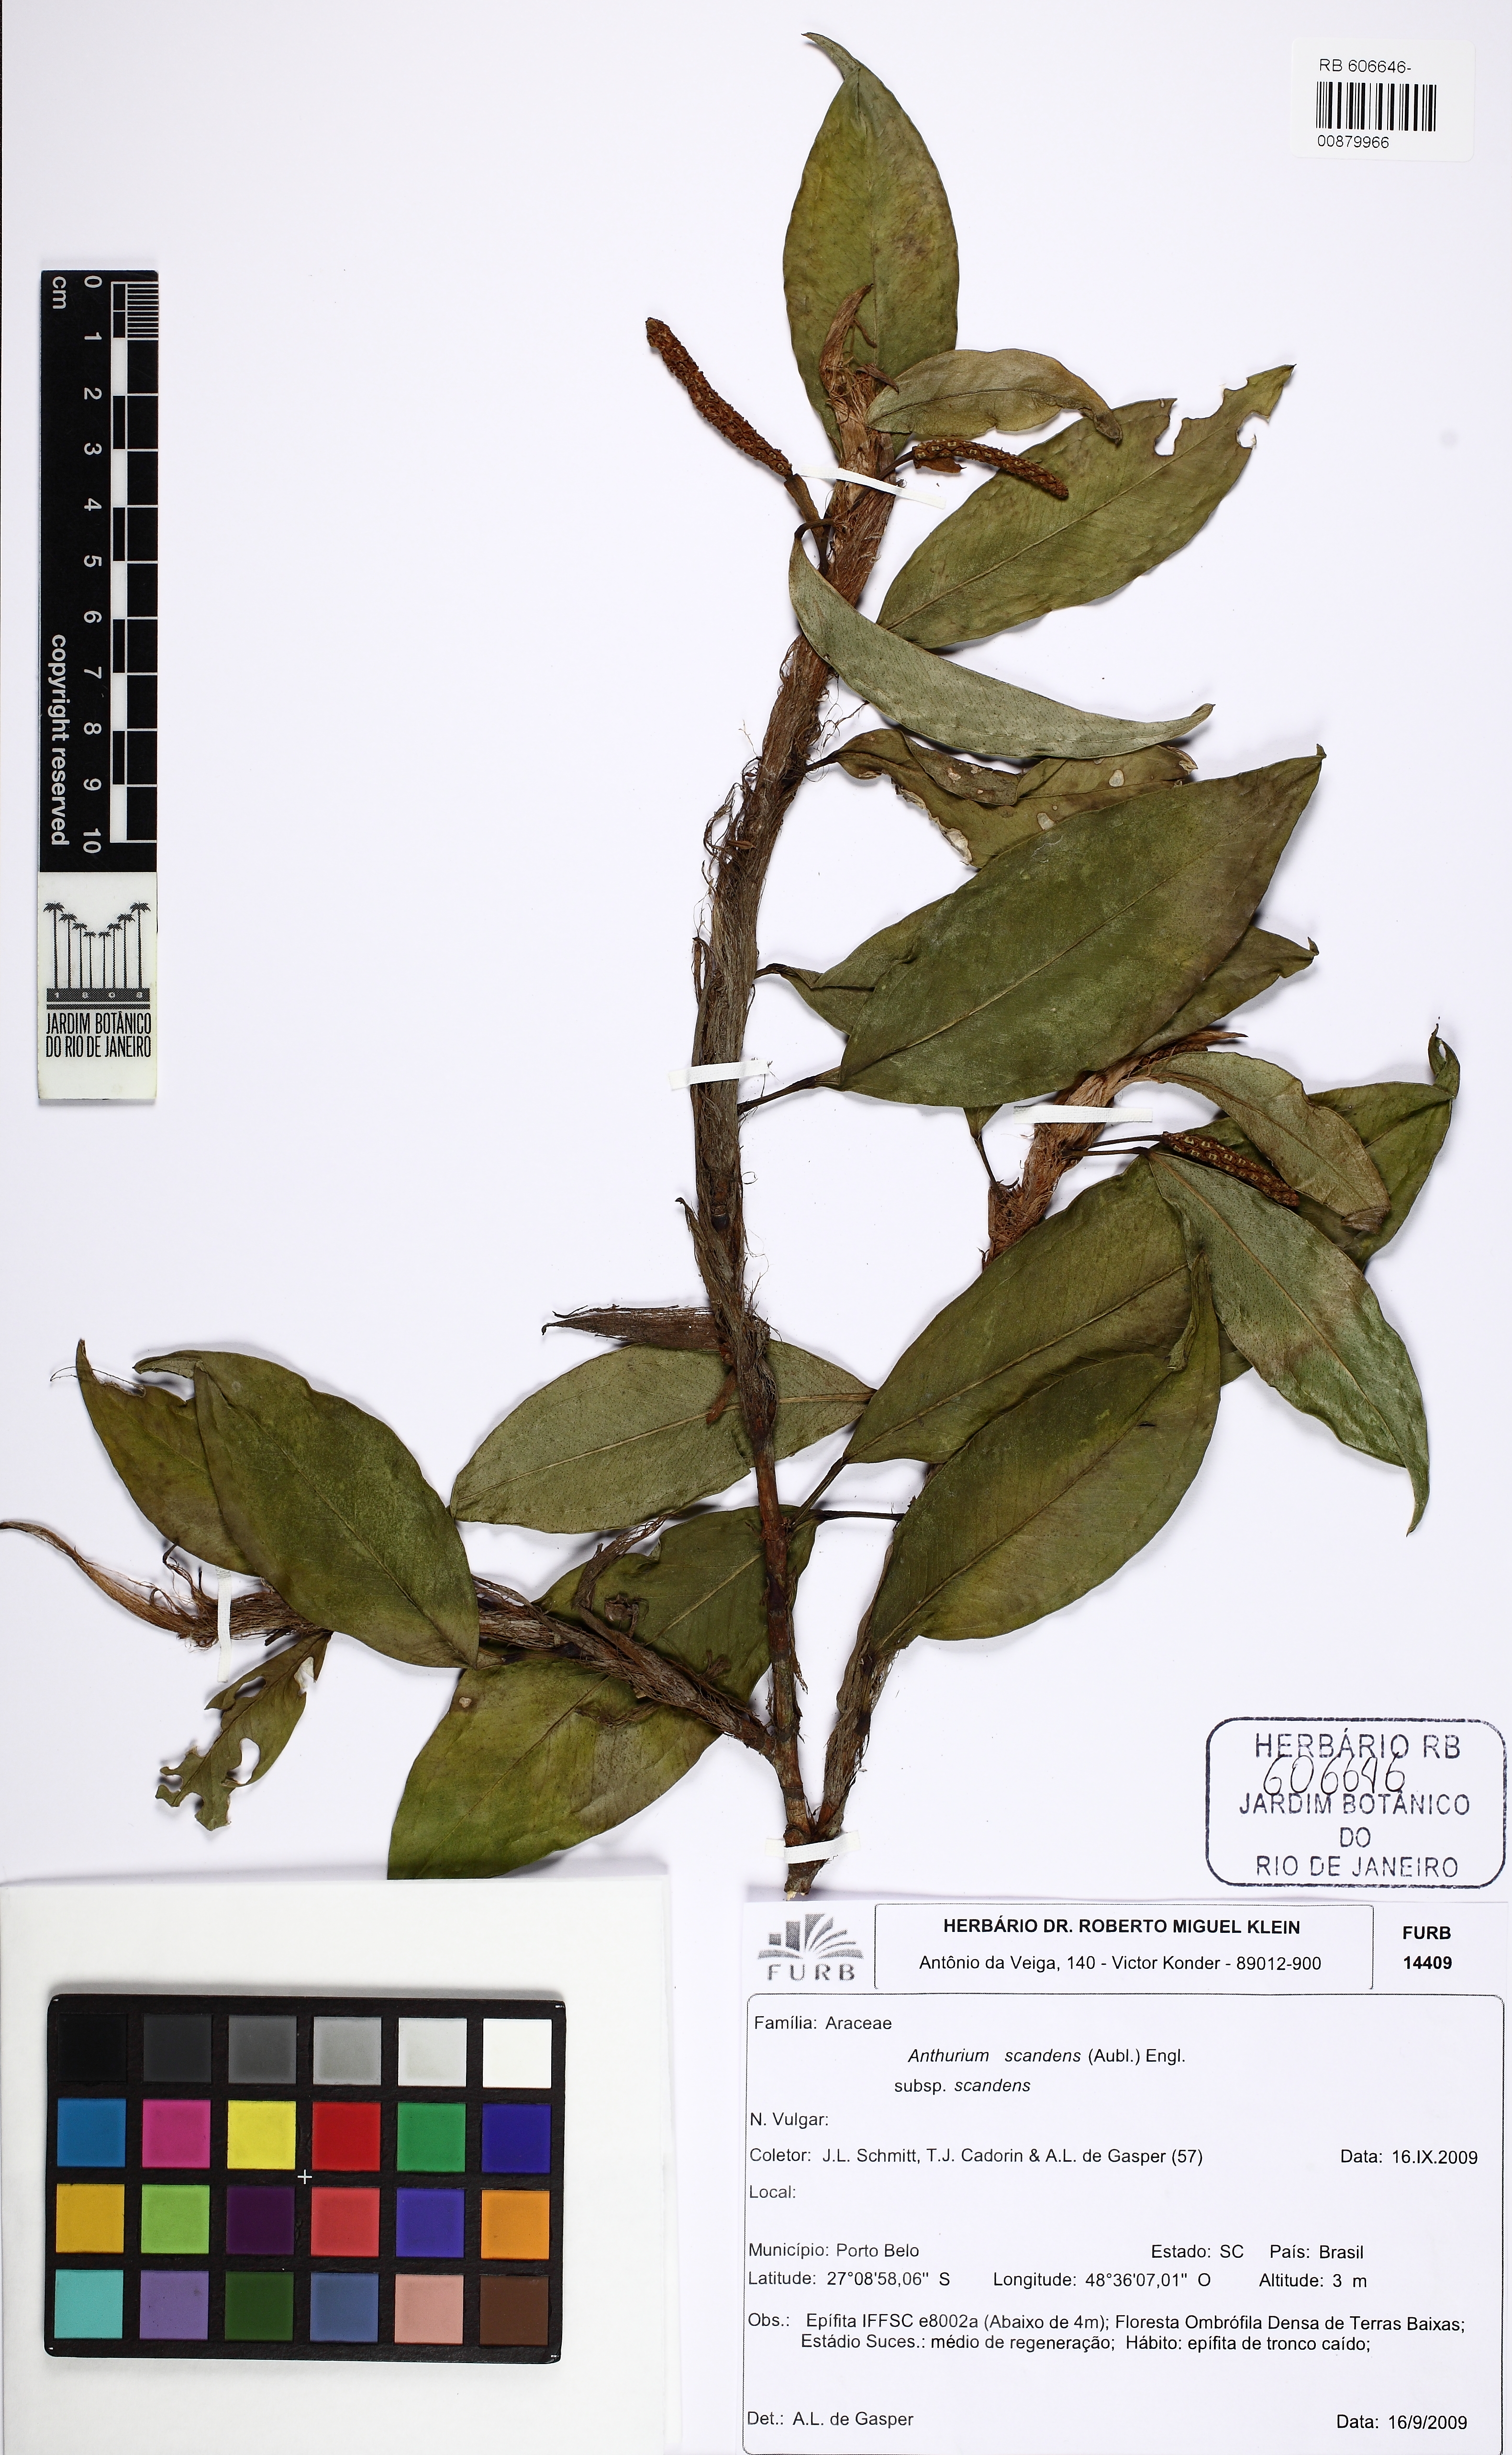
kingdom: Plantae
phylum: Tracheophyta
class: Liliopsida
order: Alismatales
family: Araceae
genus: Anthurium
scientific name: Anthurium scandens
